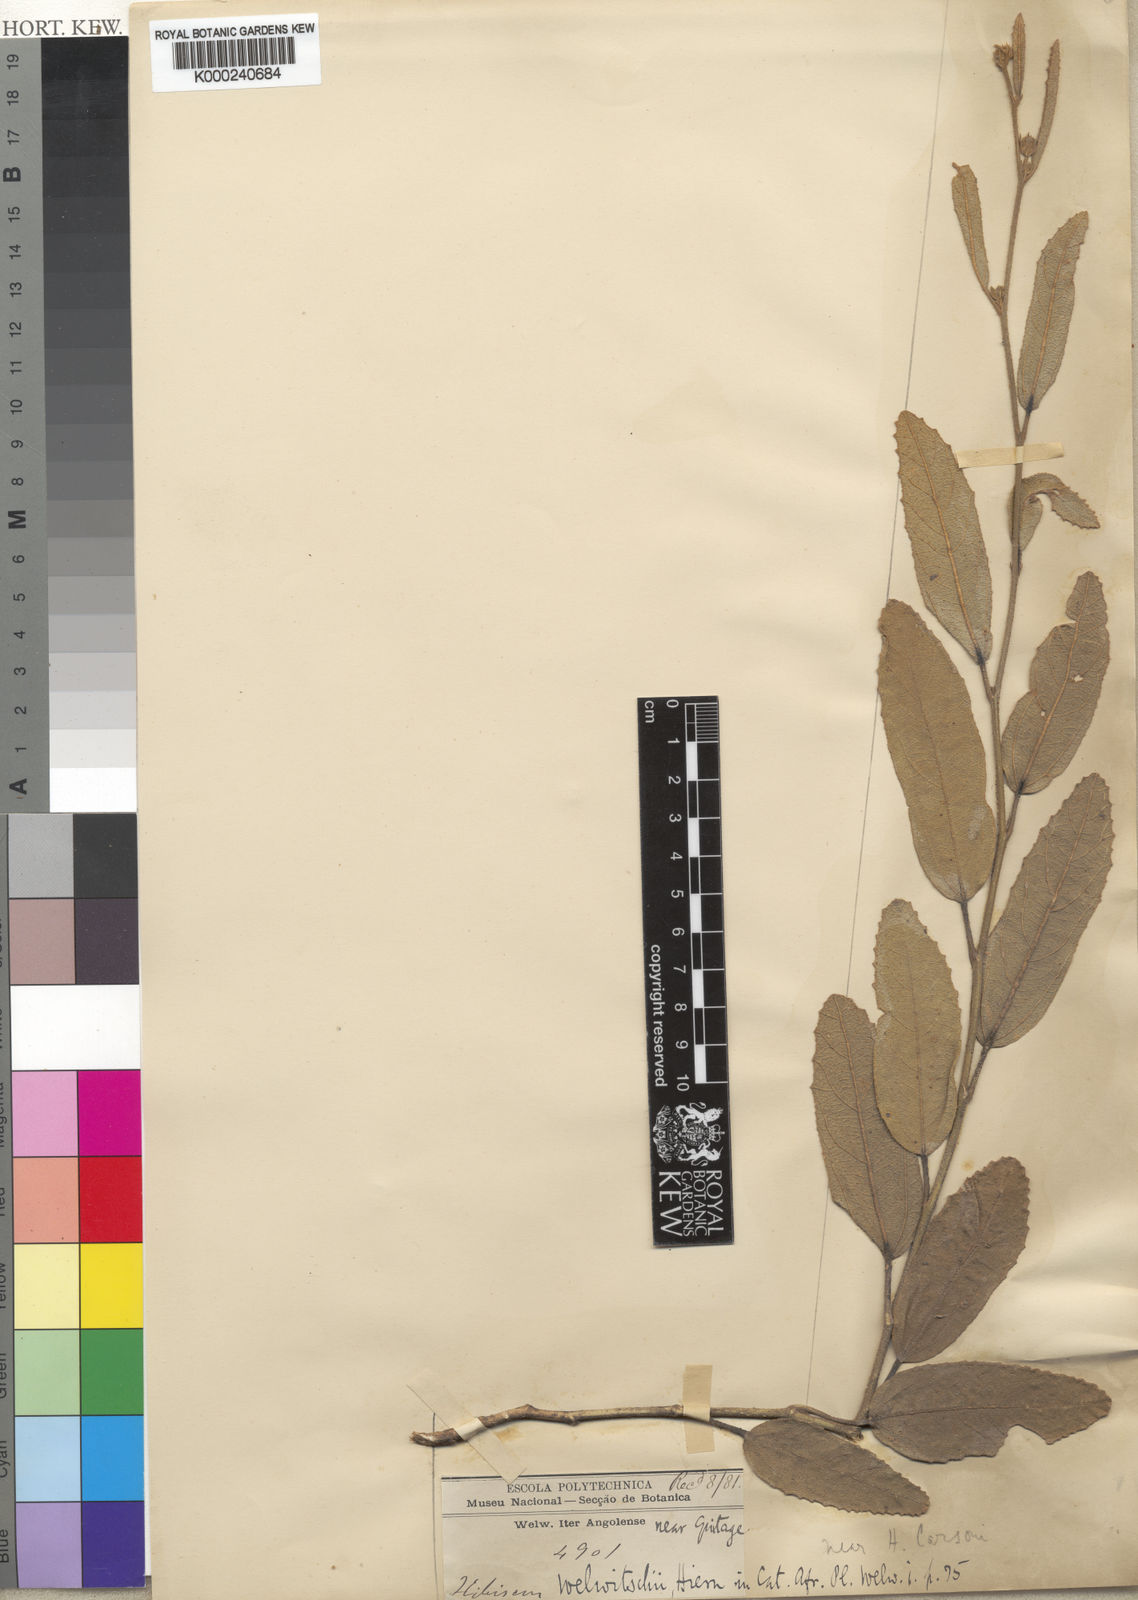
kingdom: Plantae
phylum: Tracheophyta
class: Magnoliopsida
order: Malvales
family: Malvaceae
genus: Hibiscus
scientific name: Hibiscus
